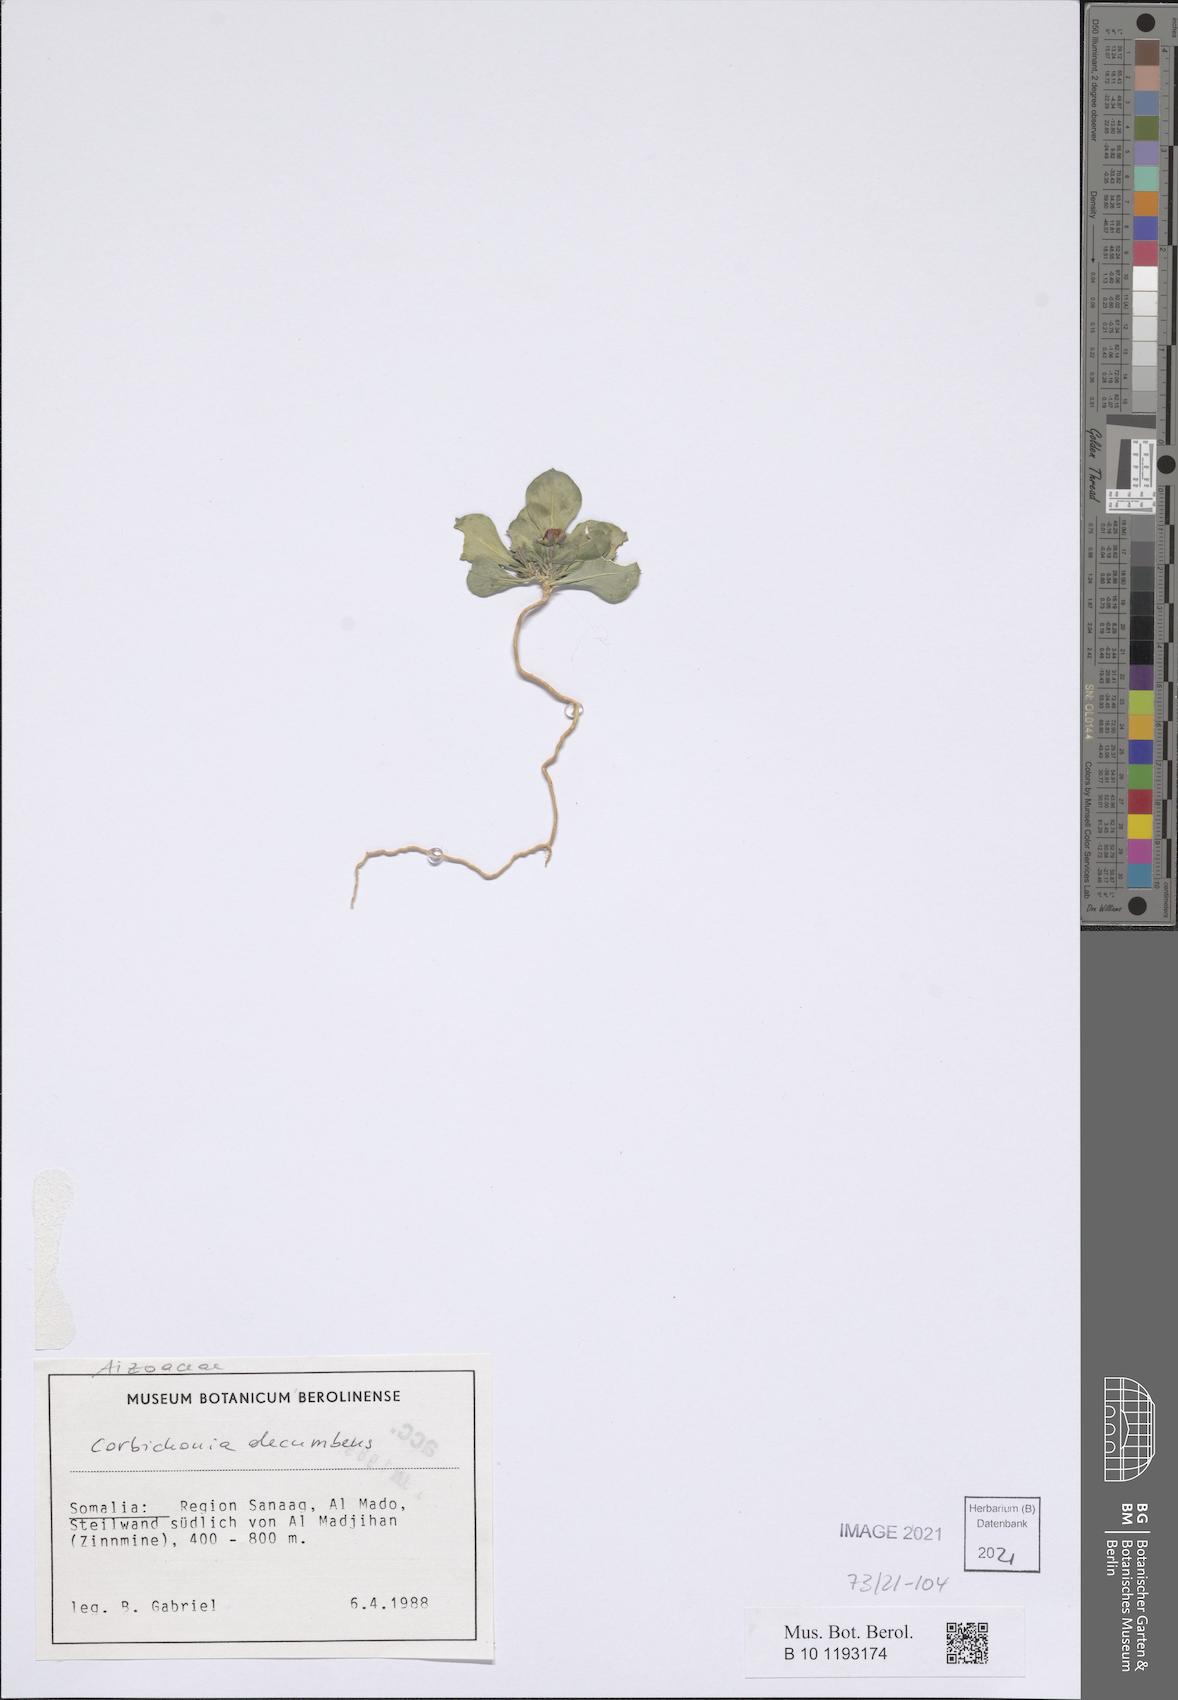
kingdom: Plantae
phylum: Tracheophyta
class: Magnoliopsida
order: Caryophyllales
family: Corbichoniaceae
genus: Corbichonia
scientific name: Corbichonia decumbens
